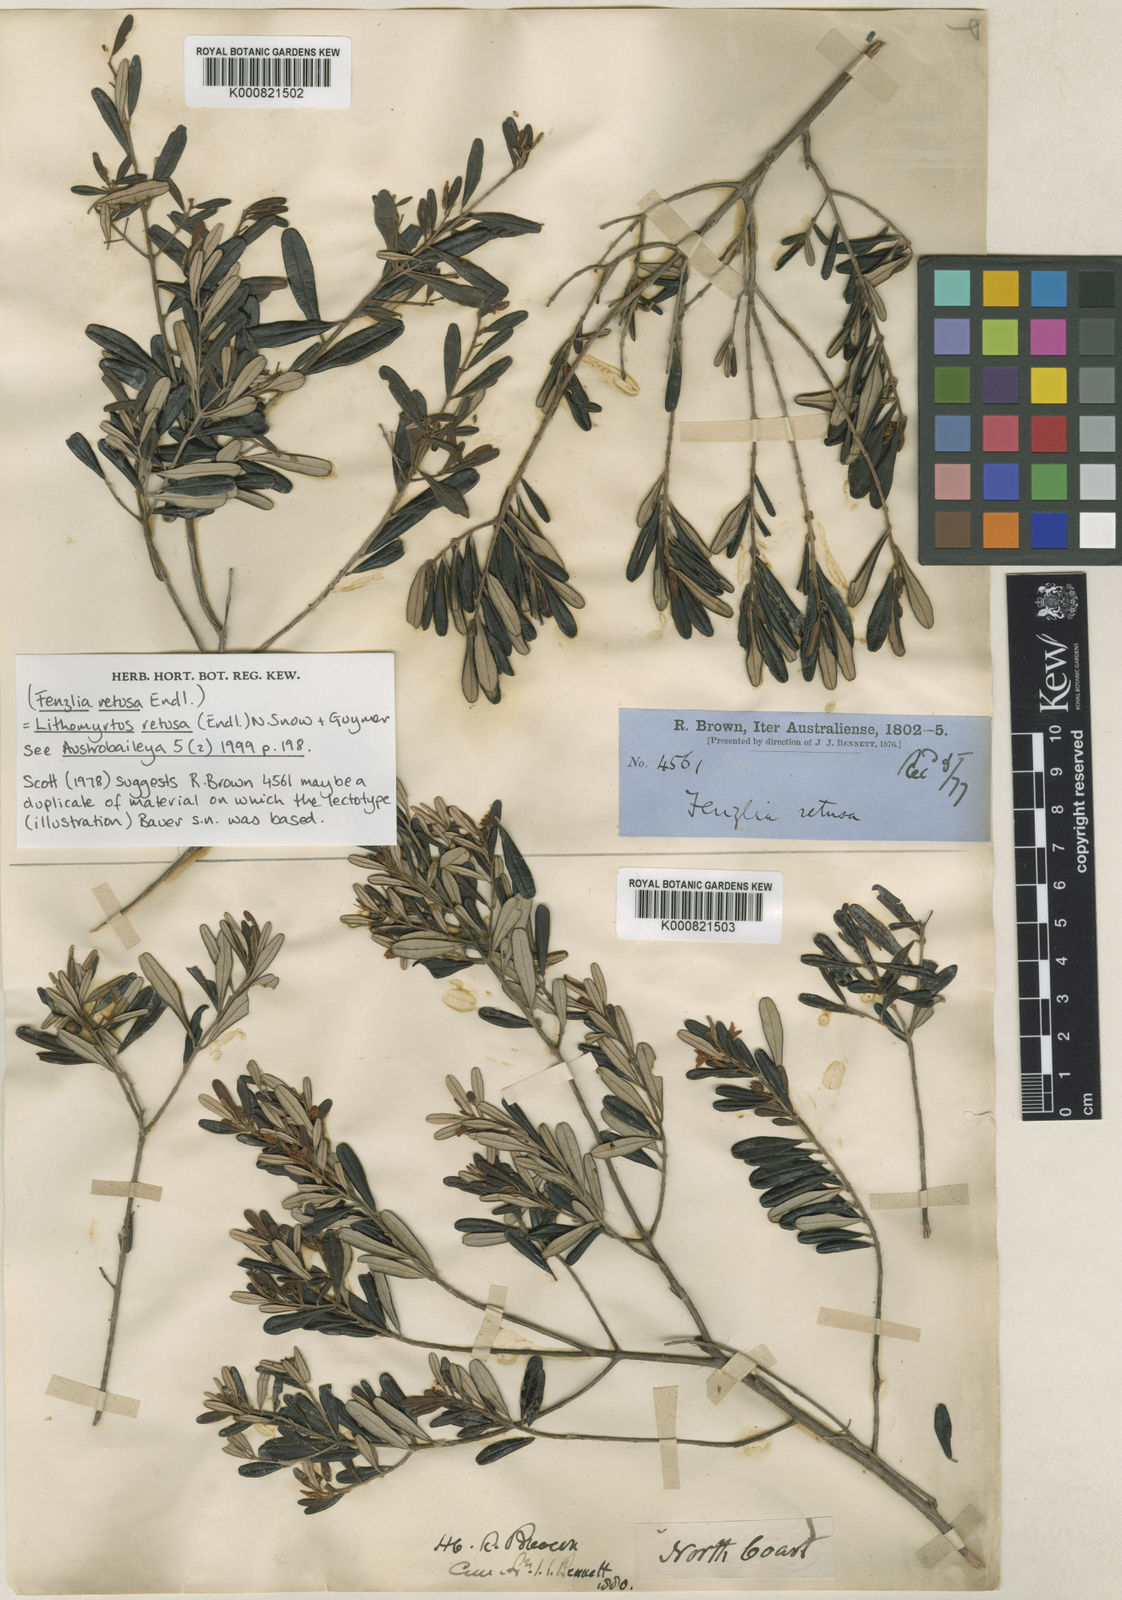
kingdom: Plantae
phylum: Tracheophyta
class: Magnoliopsida
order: Myrtales
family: Myrtaceae
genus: Lithomyrtus
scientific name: Lithomyrtus retusa
